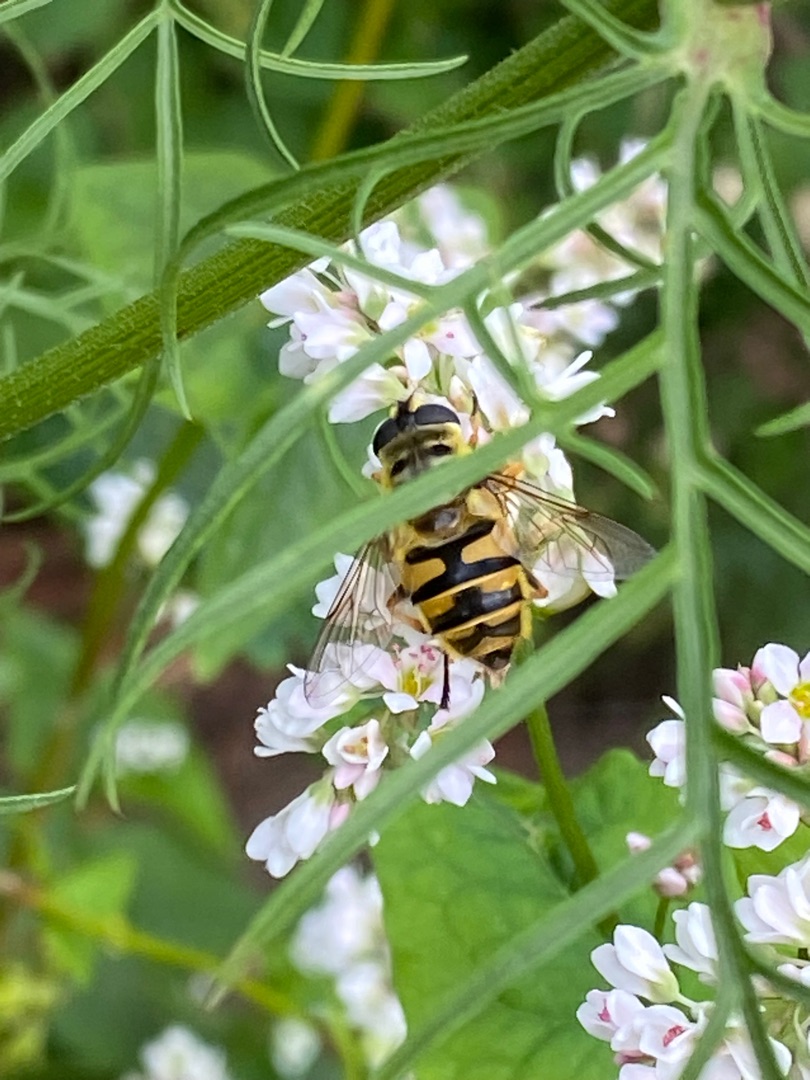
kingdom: Animalia
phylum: Arthropoda
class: Insecta
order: Diptera
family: Syrphidae
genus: Myathropa
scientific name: Myathropa florea
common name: Dødningehoved-svirreflue
